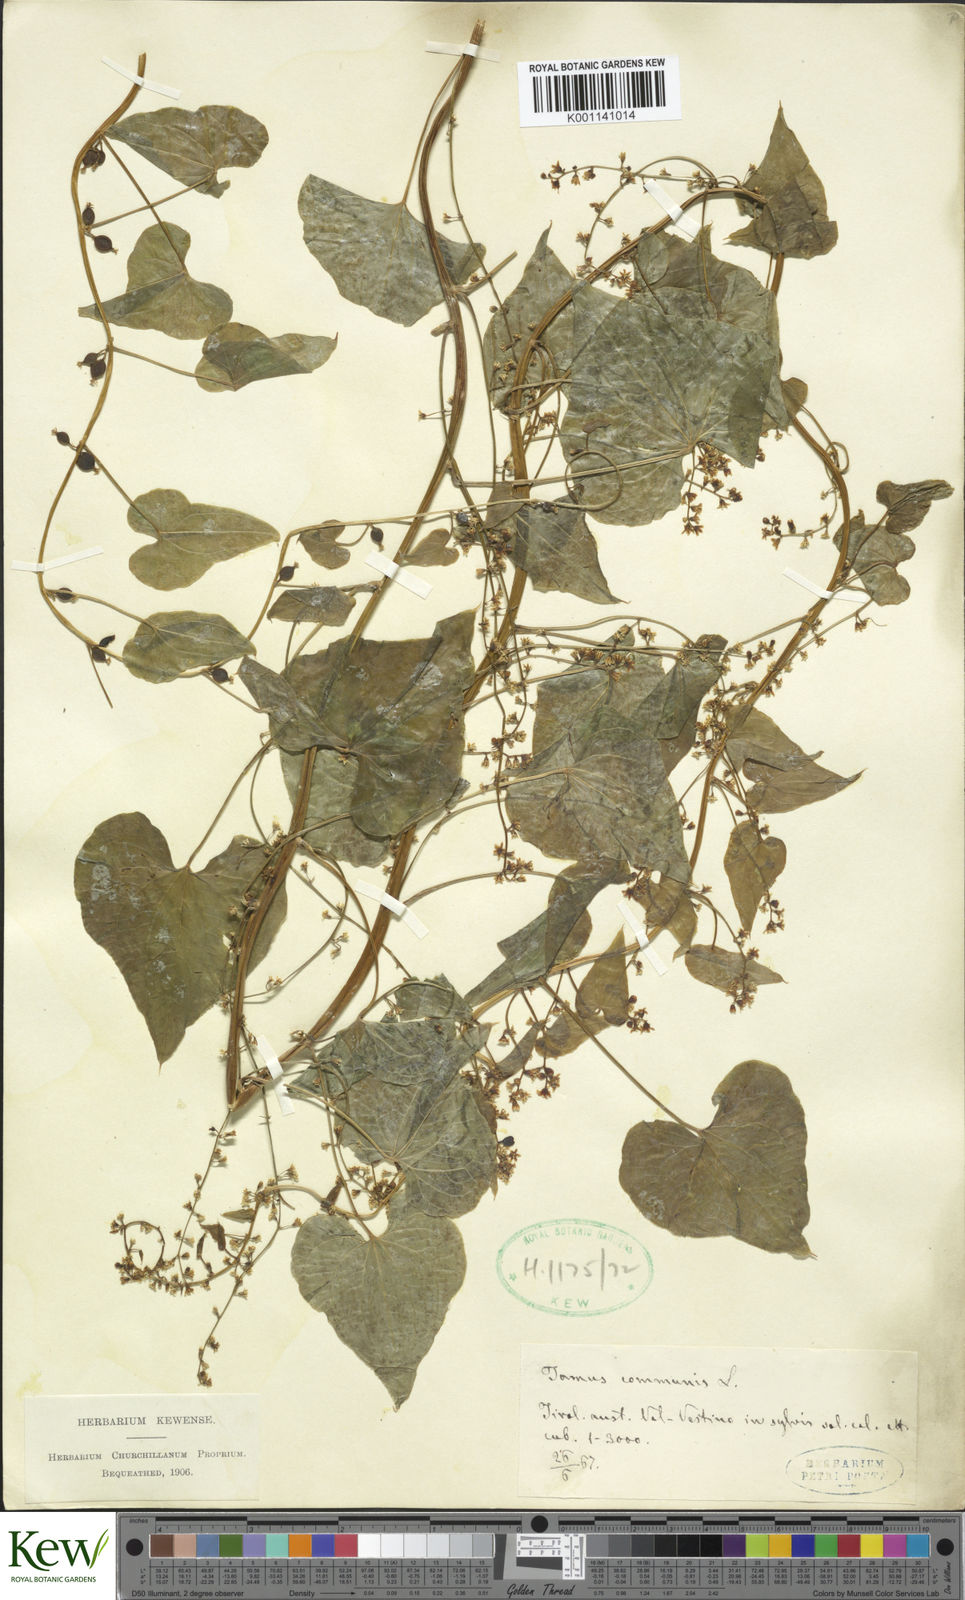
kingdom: Plantae
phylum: Tracheophyta
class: Liliopsida
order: Dioscoreales
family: Dioscoreaceae
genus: Dioscorea
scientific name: Dioscorea communis
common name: Black-bindweed
